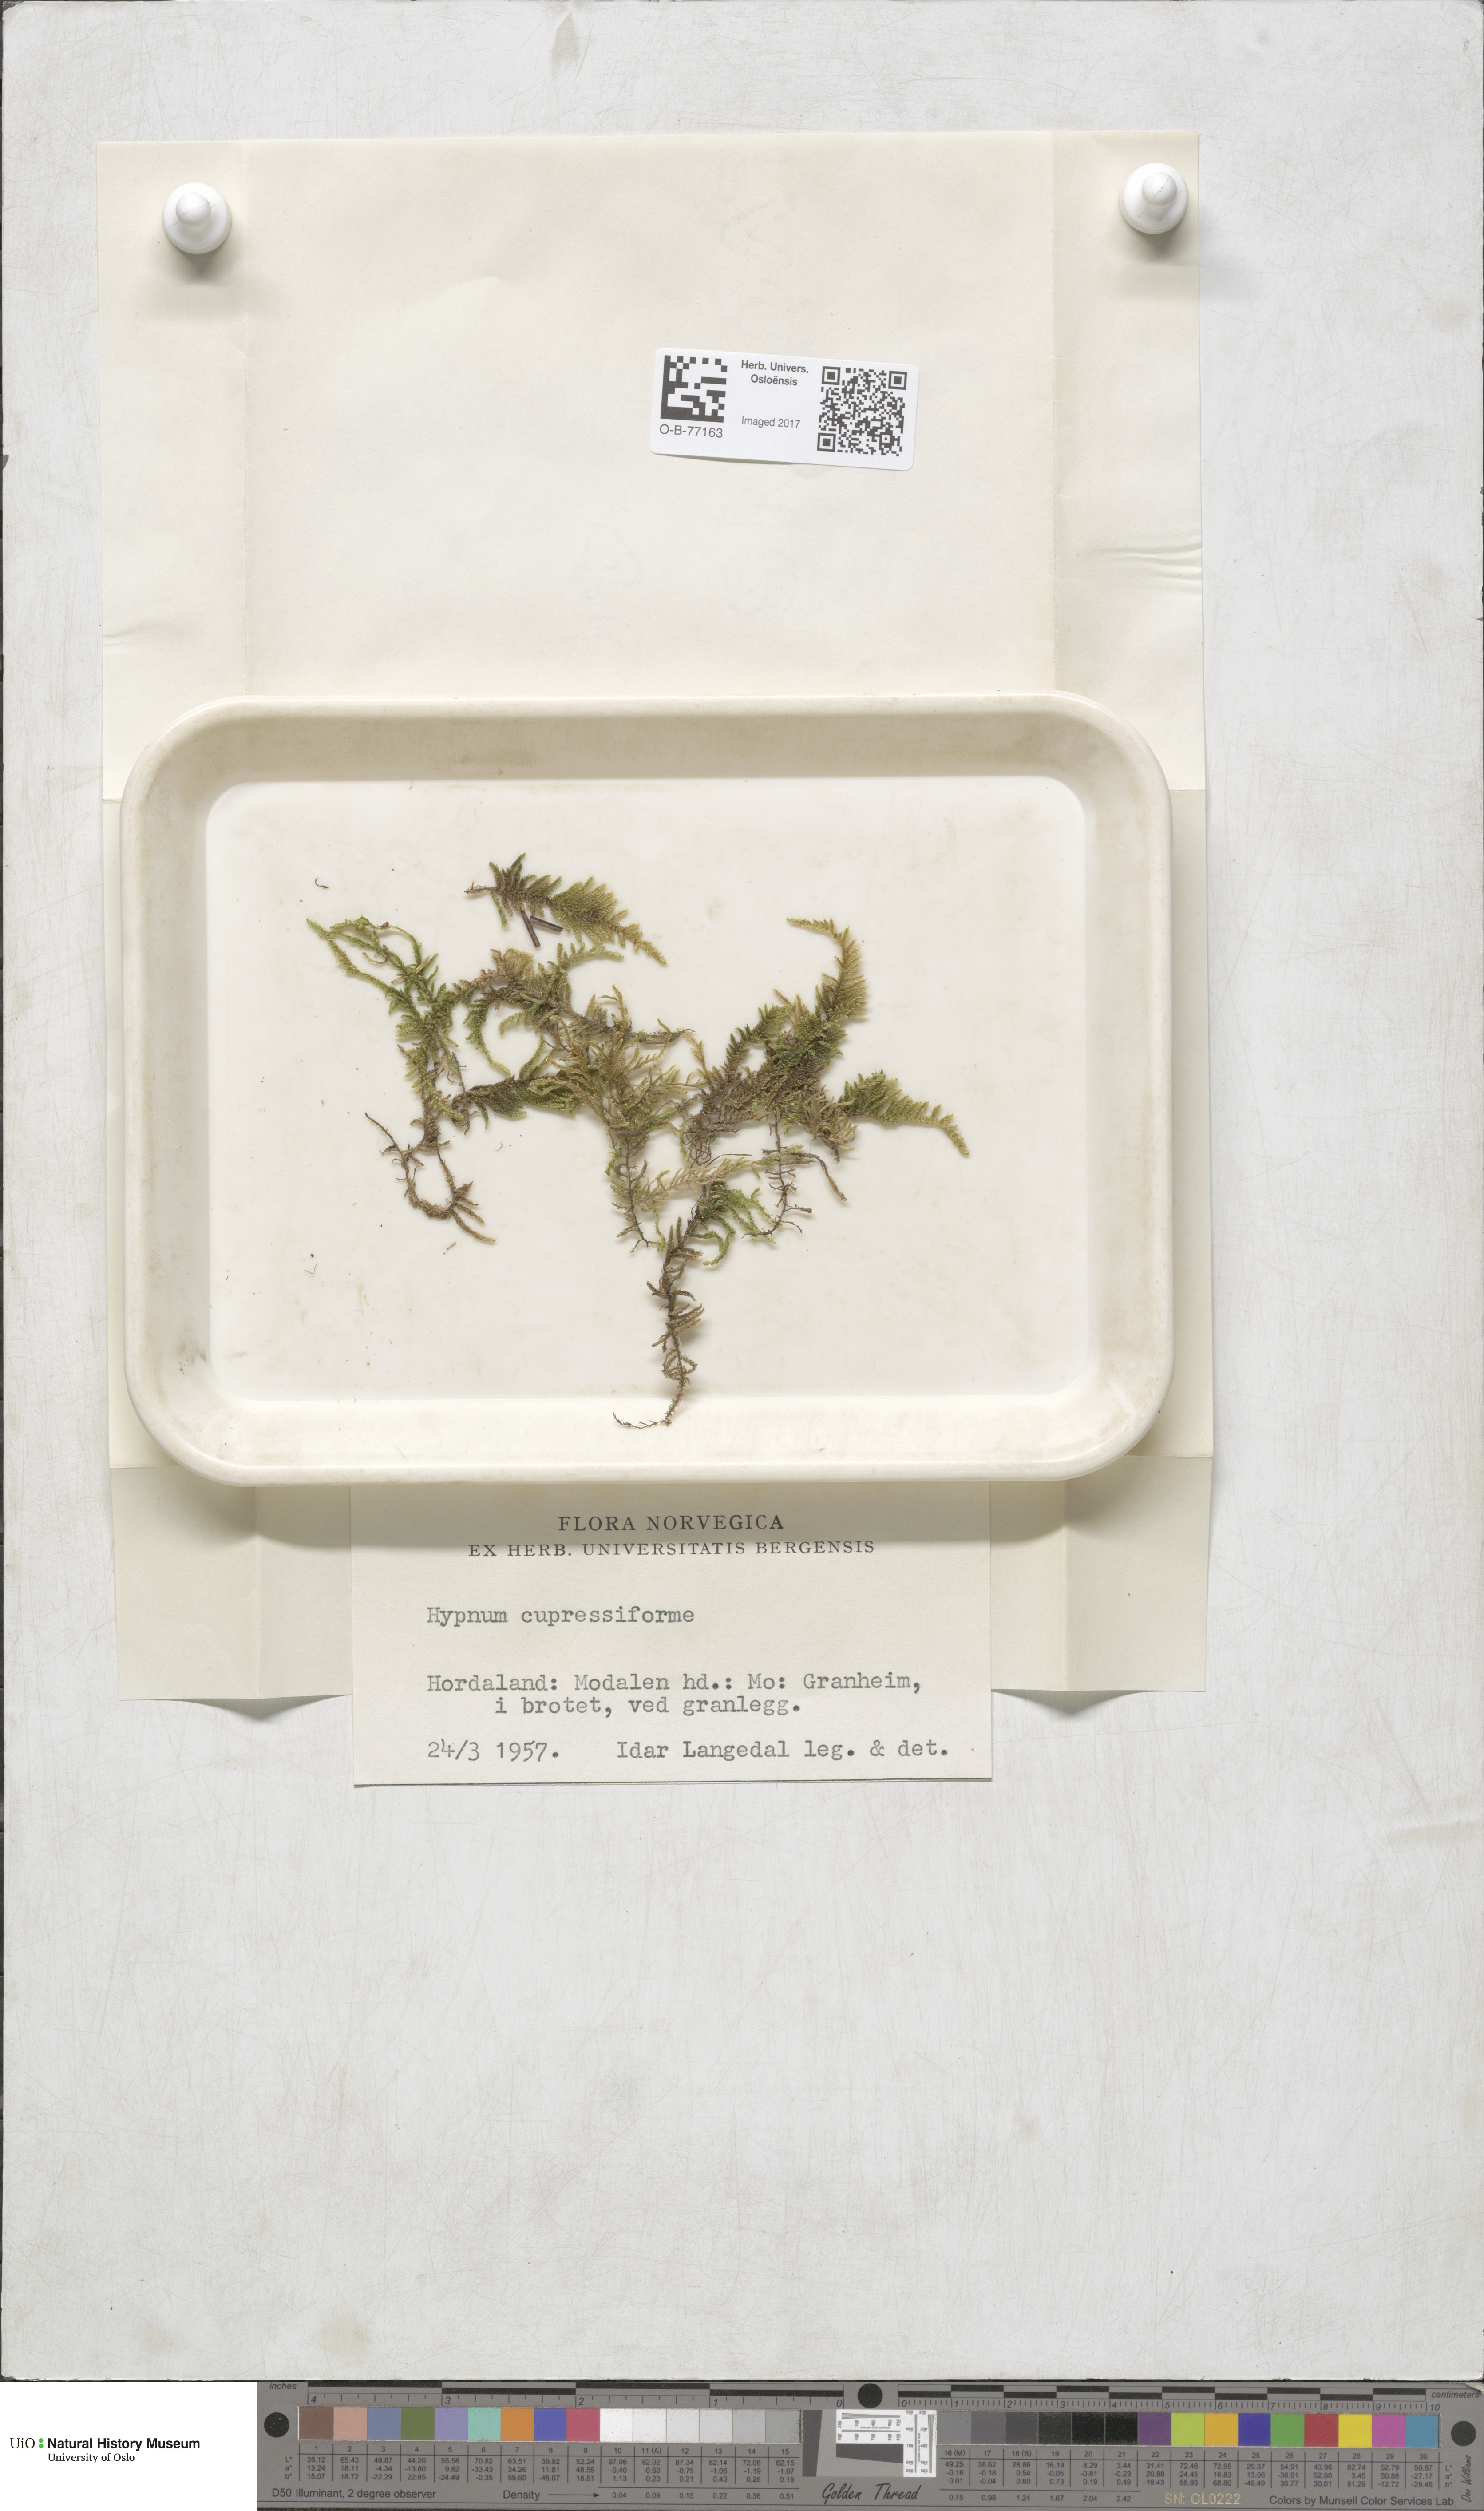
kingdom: Plantae
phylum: Bryophyta
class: Bryopsida
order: Hypnales
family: Hypnaceae
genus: Hypnum
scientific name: Hypnum cupressiforme
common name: Cypress-leaved plait-moss
